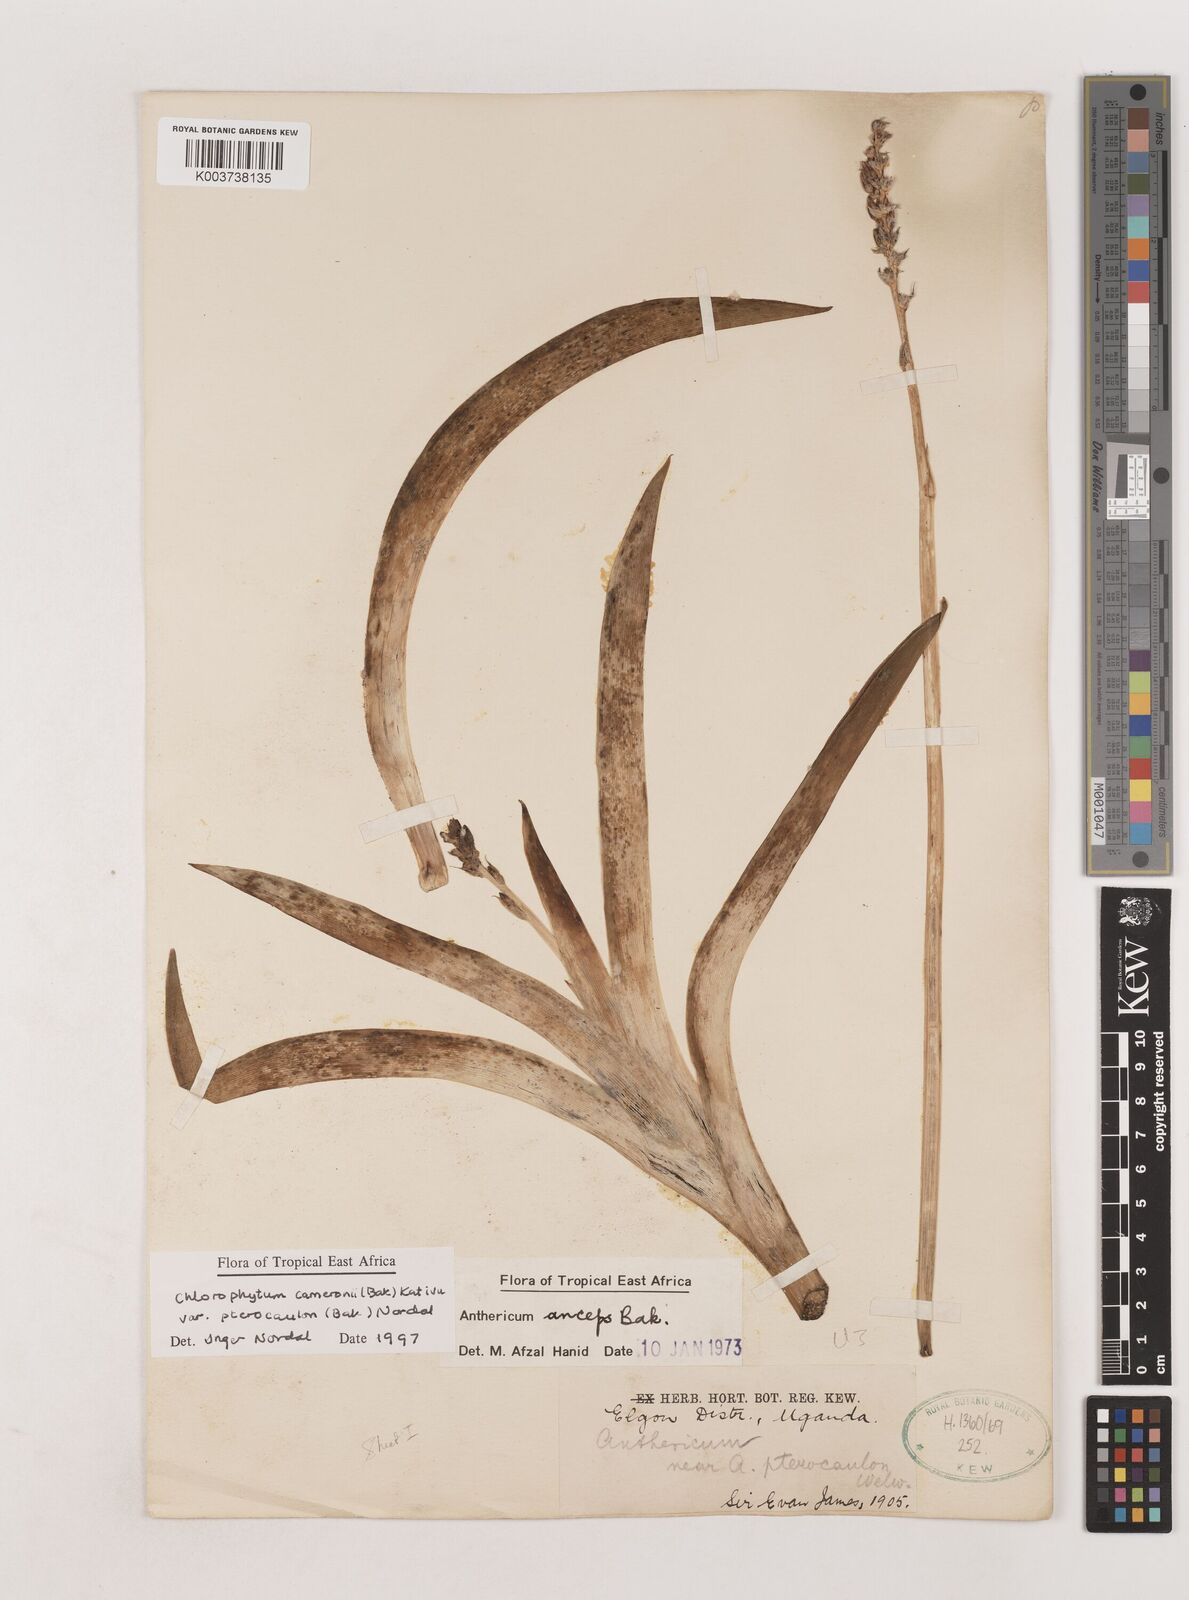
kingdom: Plantae
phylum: Tracheophyta
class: Liliopsida
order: Asparagales
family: Asparagaceae
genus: Chlorophytum
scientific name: Chlorophytum cameronii
